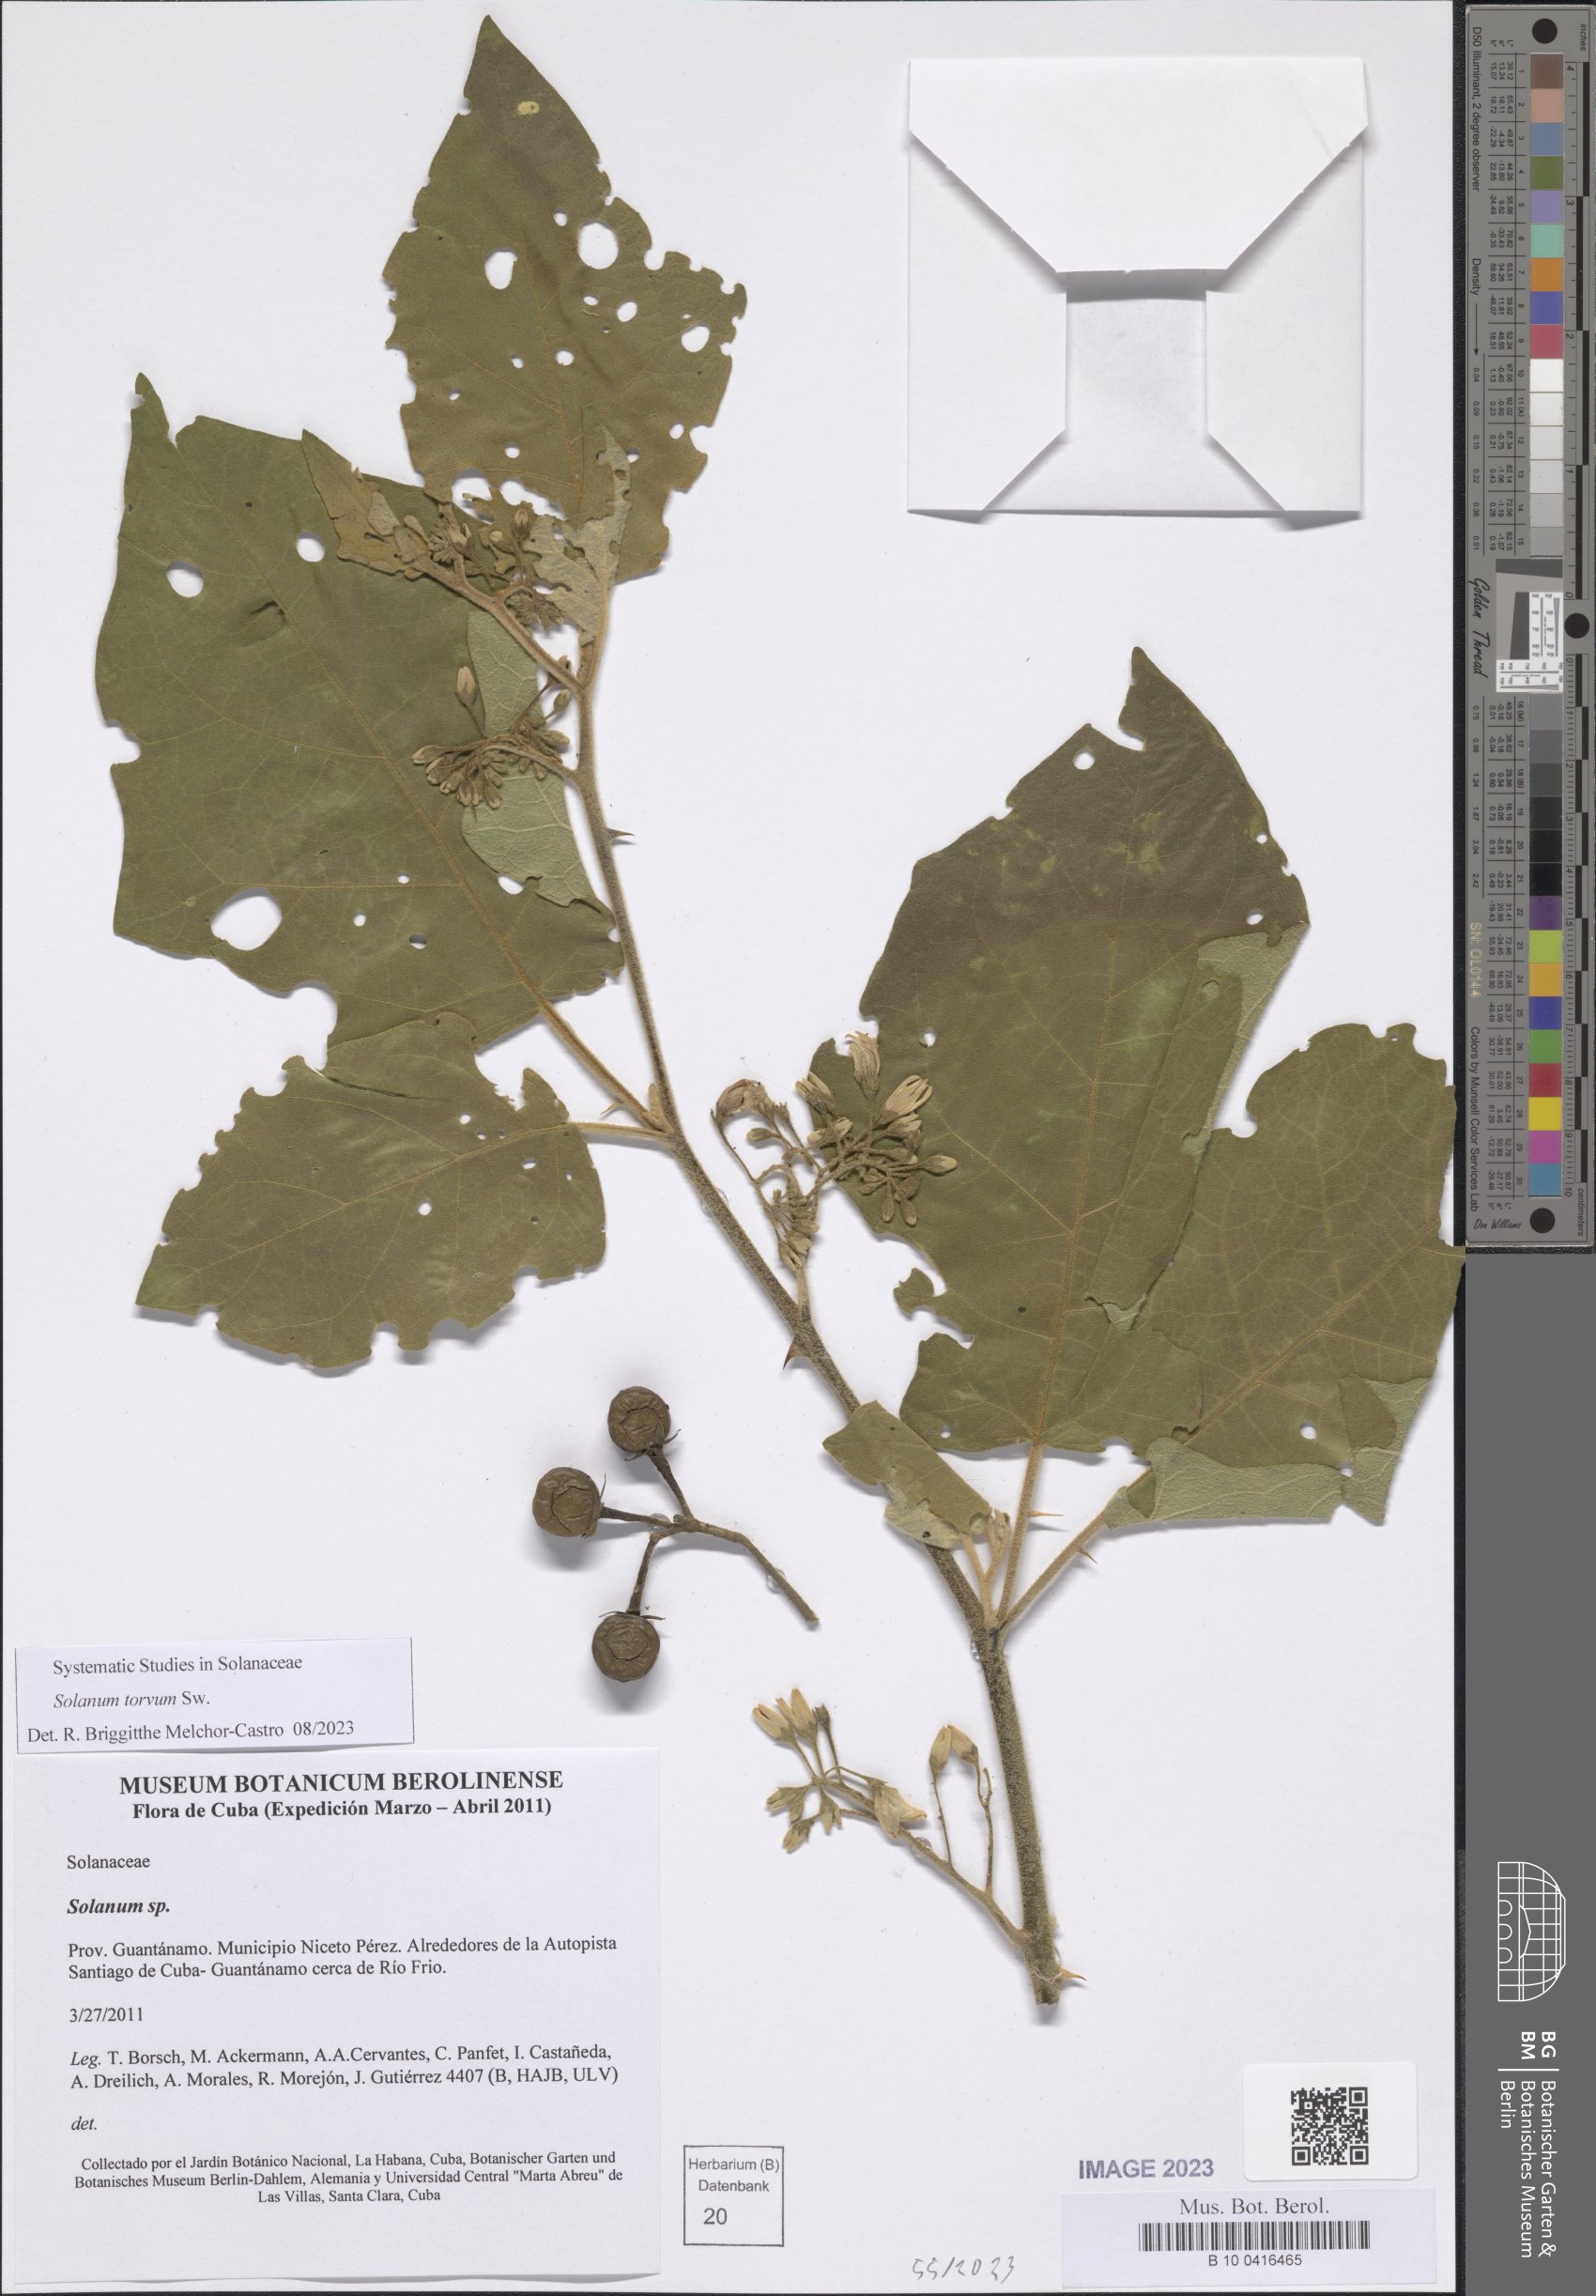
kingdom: Plantae
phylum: Tracheophyta
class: Magnoliopsida
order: Solanales
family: Solanaceae
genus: Solanum
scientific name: Solanum torvum
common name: Turkey berry
